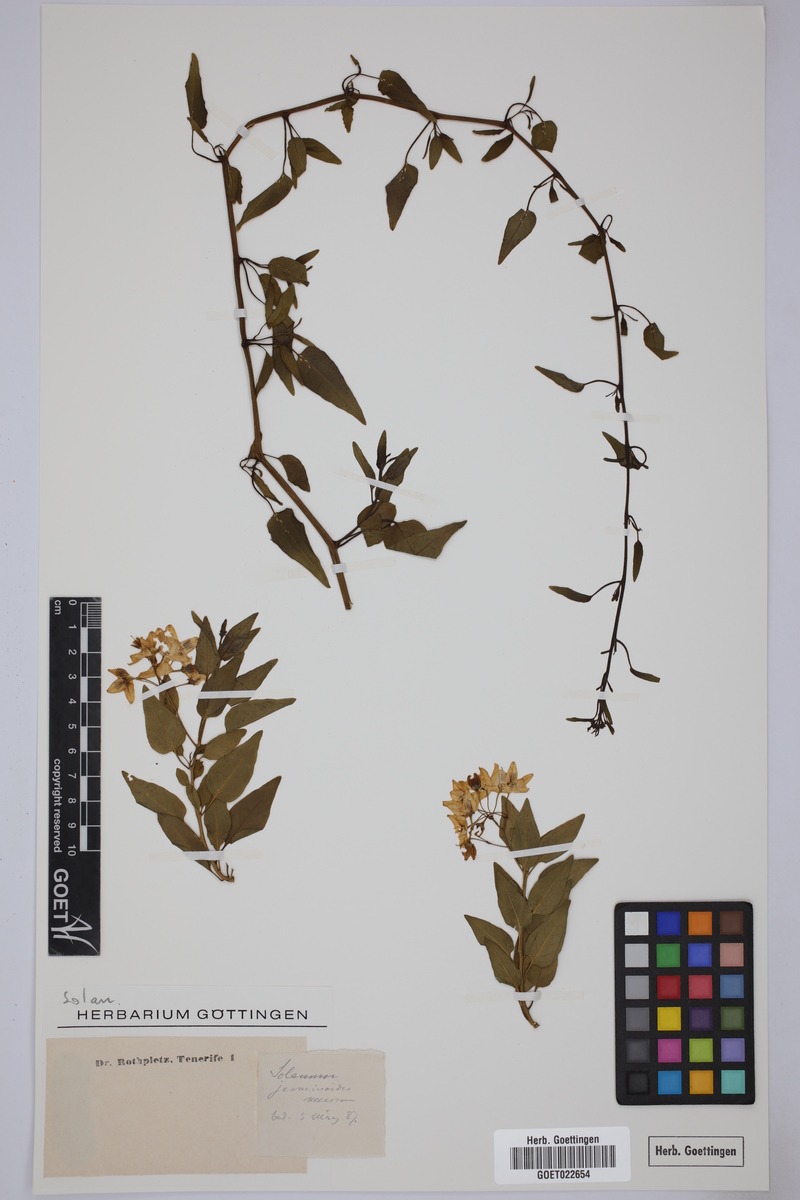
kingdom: Plantae
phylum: Tracheophyta
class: Magnoliopsida
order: Solanales
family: Solanaceae
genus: Solanum
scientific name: Solanum laxum
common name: Nightshade
